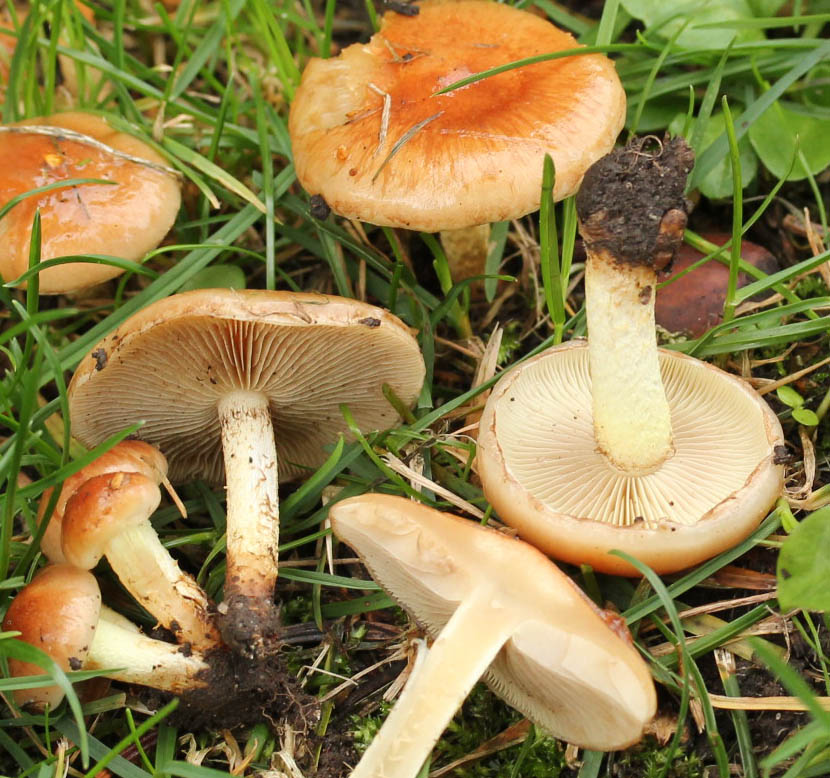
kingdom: Fungi
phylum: Basidiomycota
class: Agaricomycetes
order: Agaricales
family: Strophariaceae
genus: Pholiota
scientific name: Pholiota carbonaria
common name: kul-skælhat
